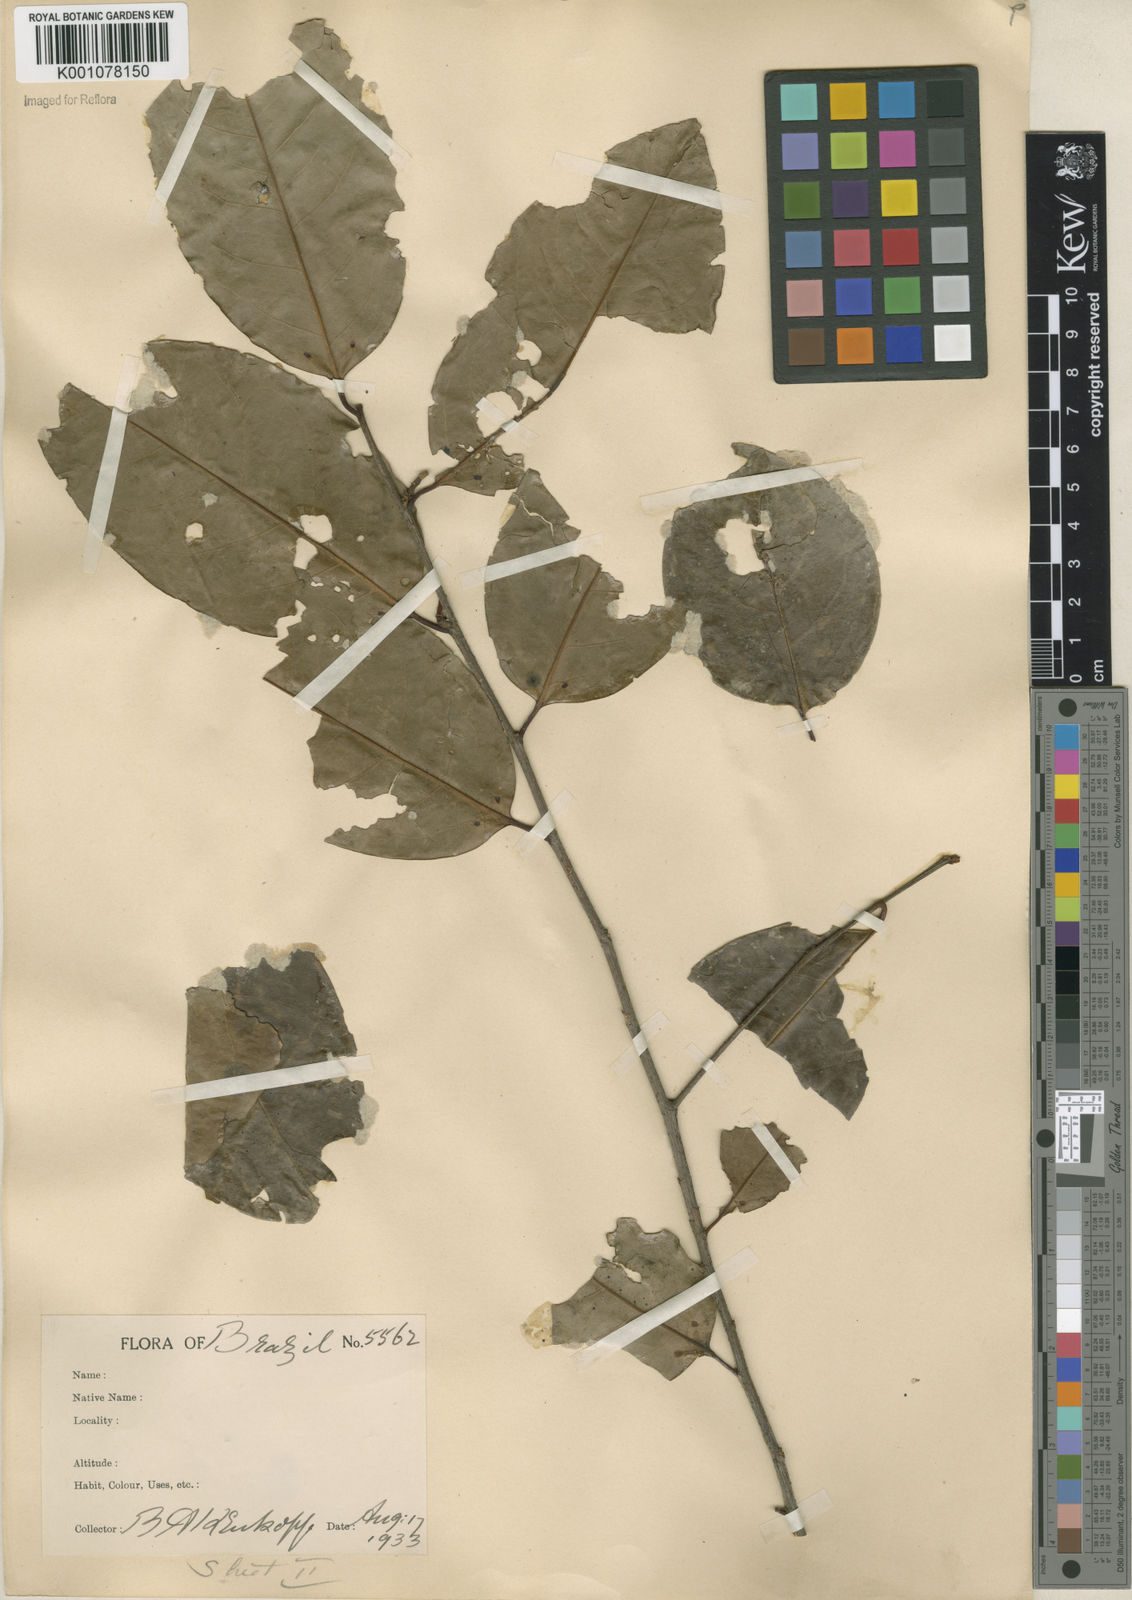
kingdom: Plantae
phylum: Tracheophyta
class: Magnoliopsida
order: Rosales
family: Rosaceae
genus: Prunus
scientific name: Prunus
